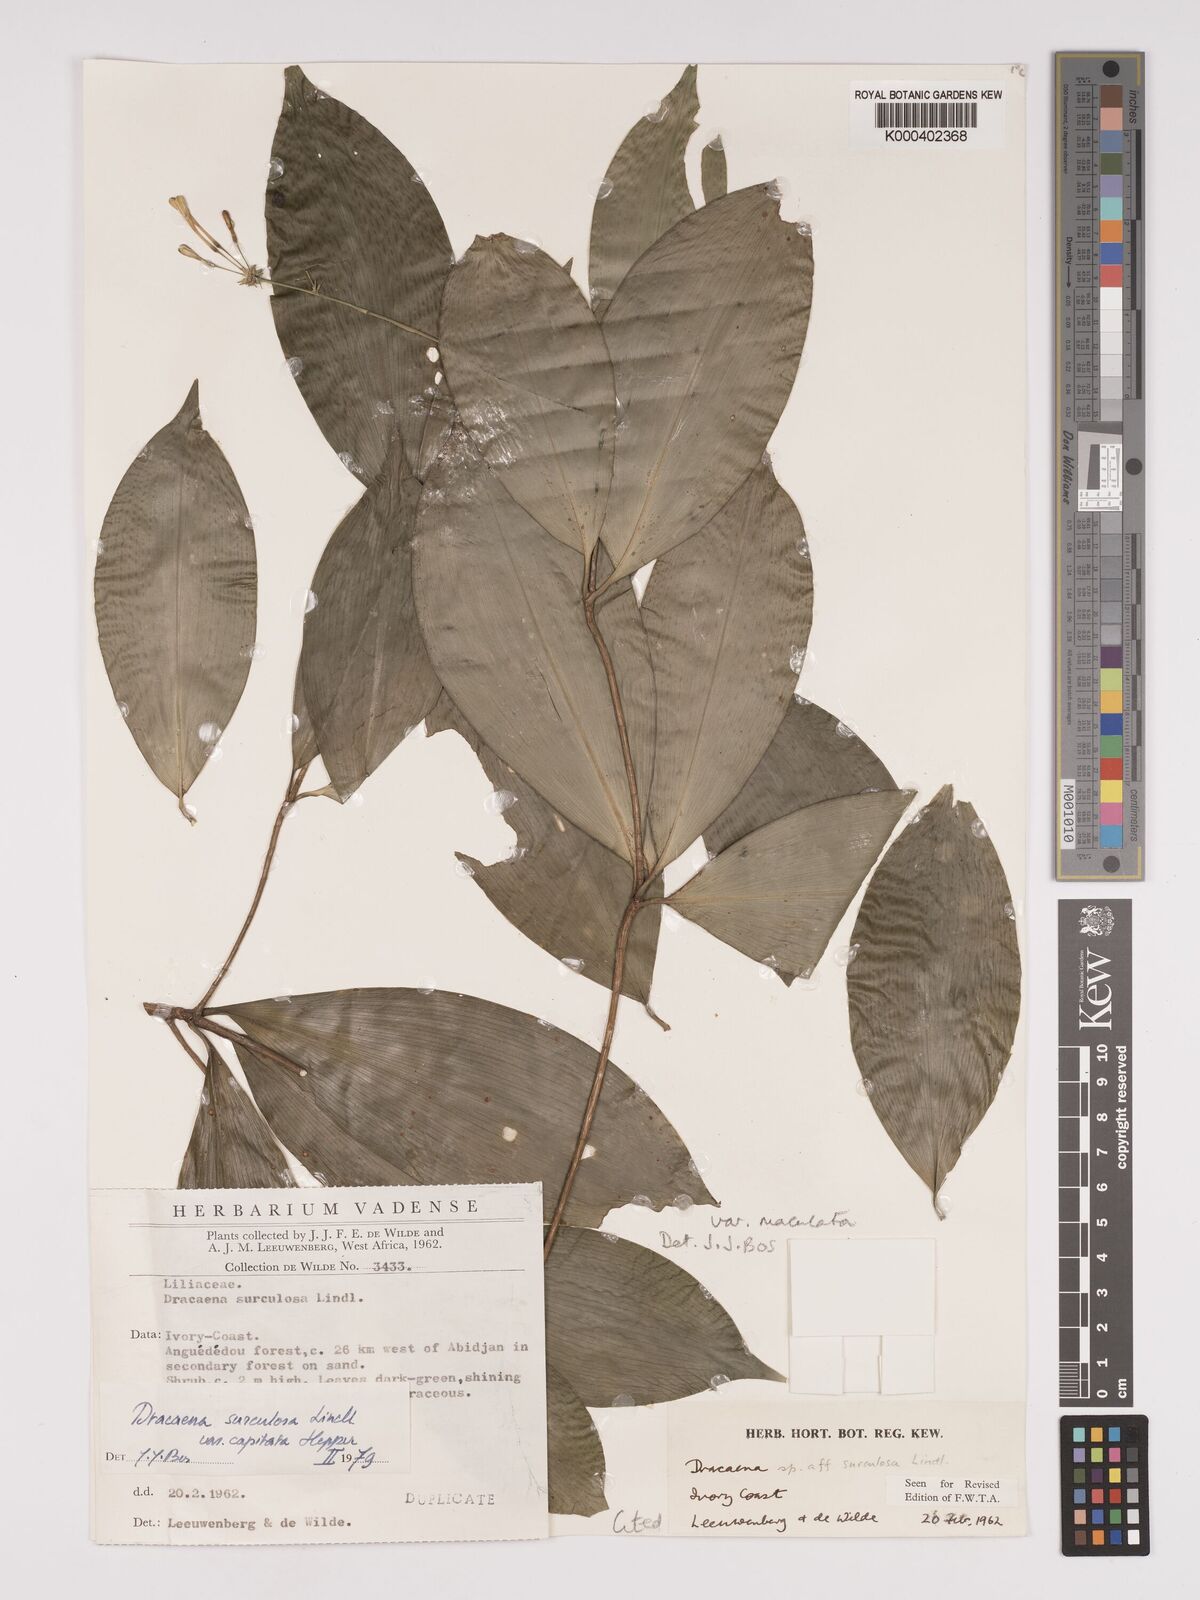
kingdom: Plantae
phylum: Tracheophyta
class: Liliopsida
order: Asparagales
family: Asparagaceae
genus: Dracaena
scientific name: Dracaena surculosa
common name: Spotted dracaena
